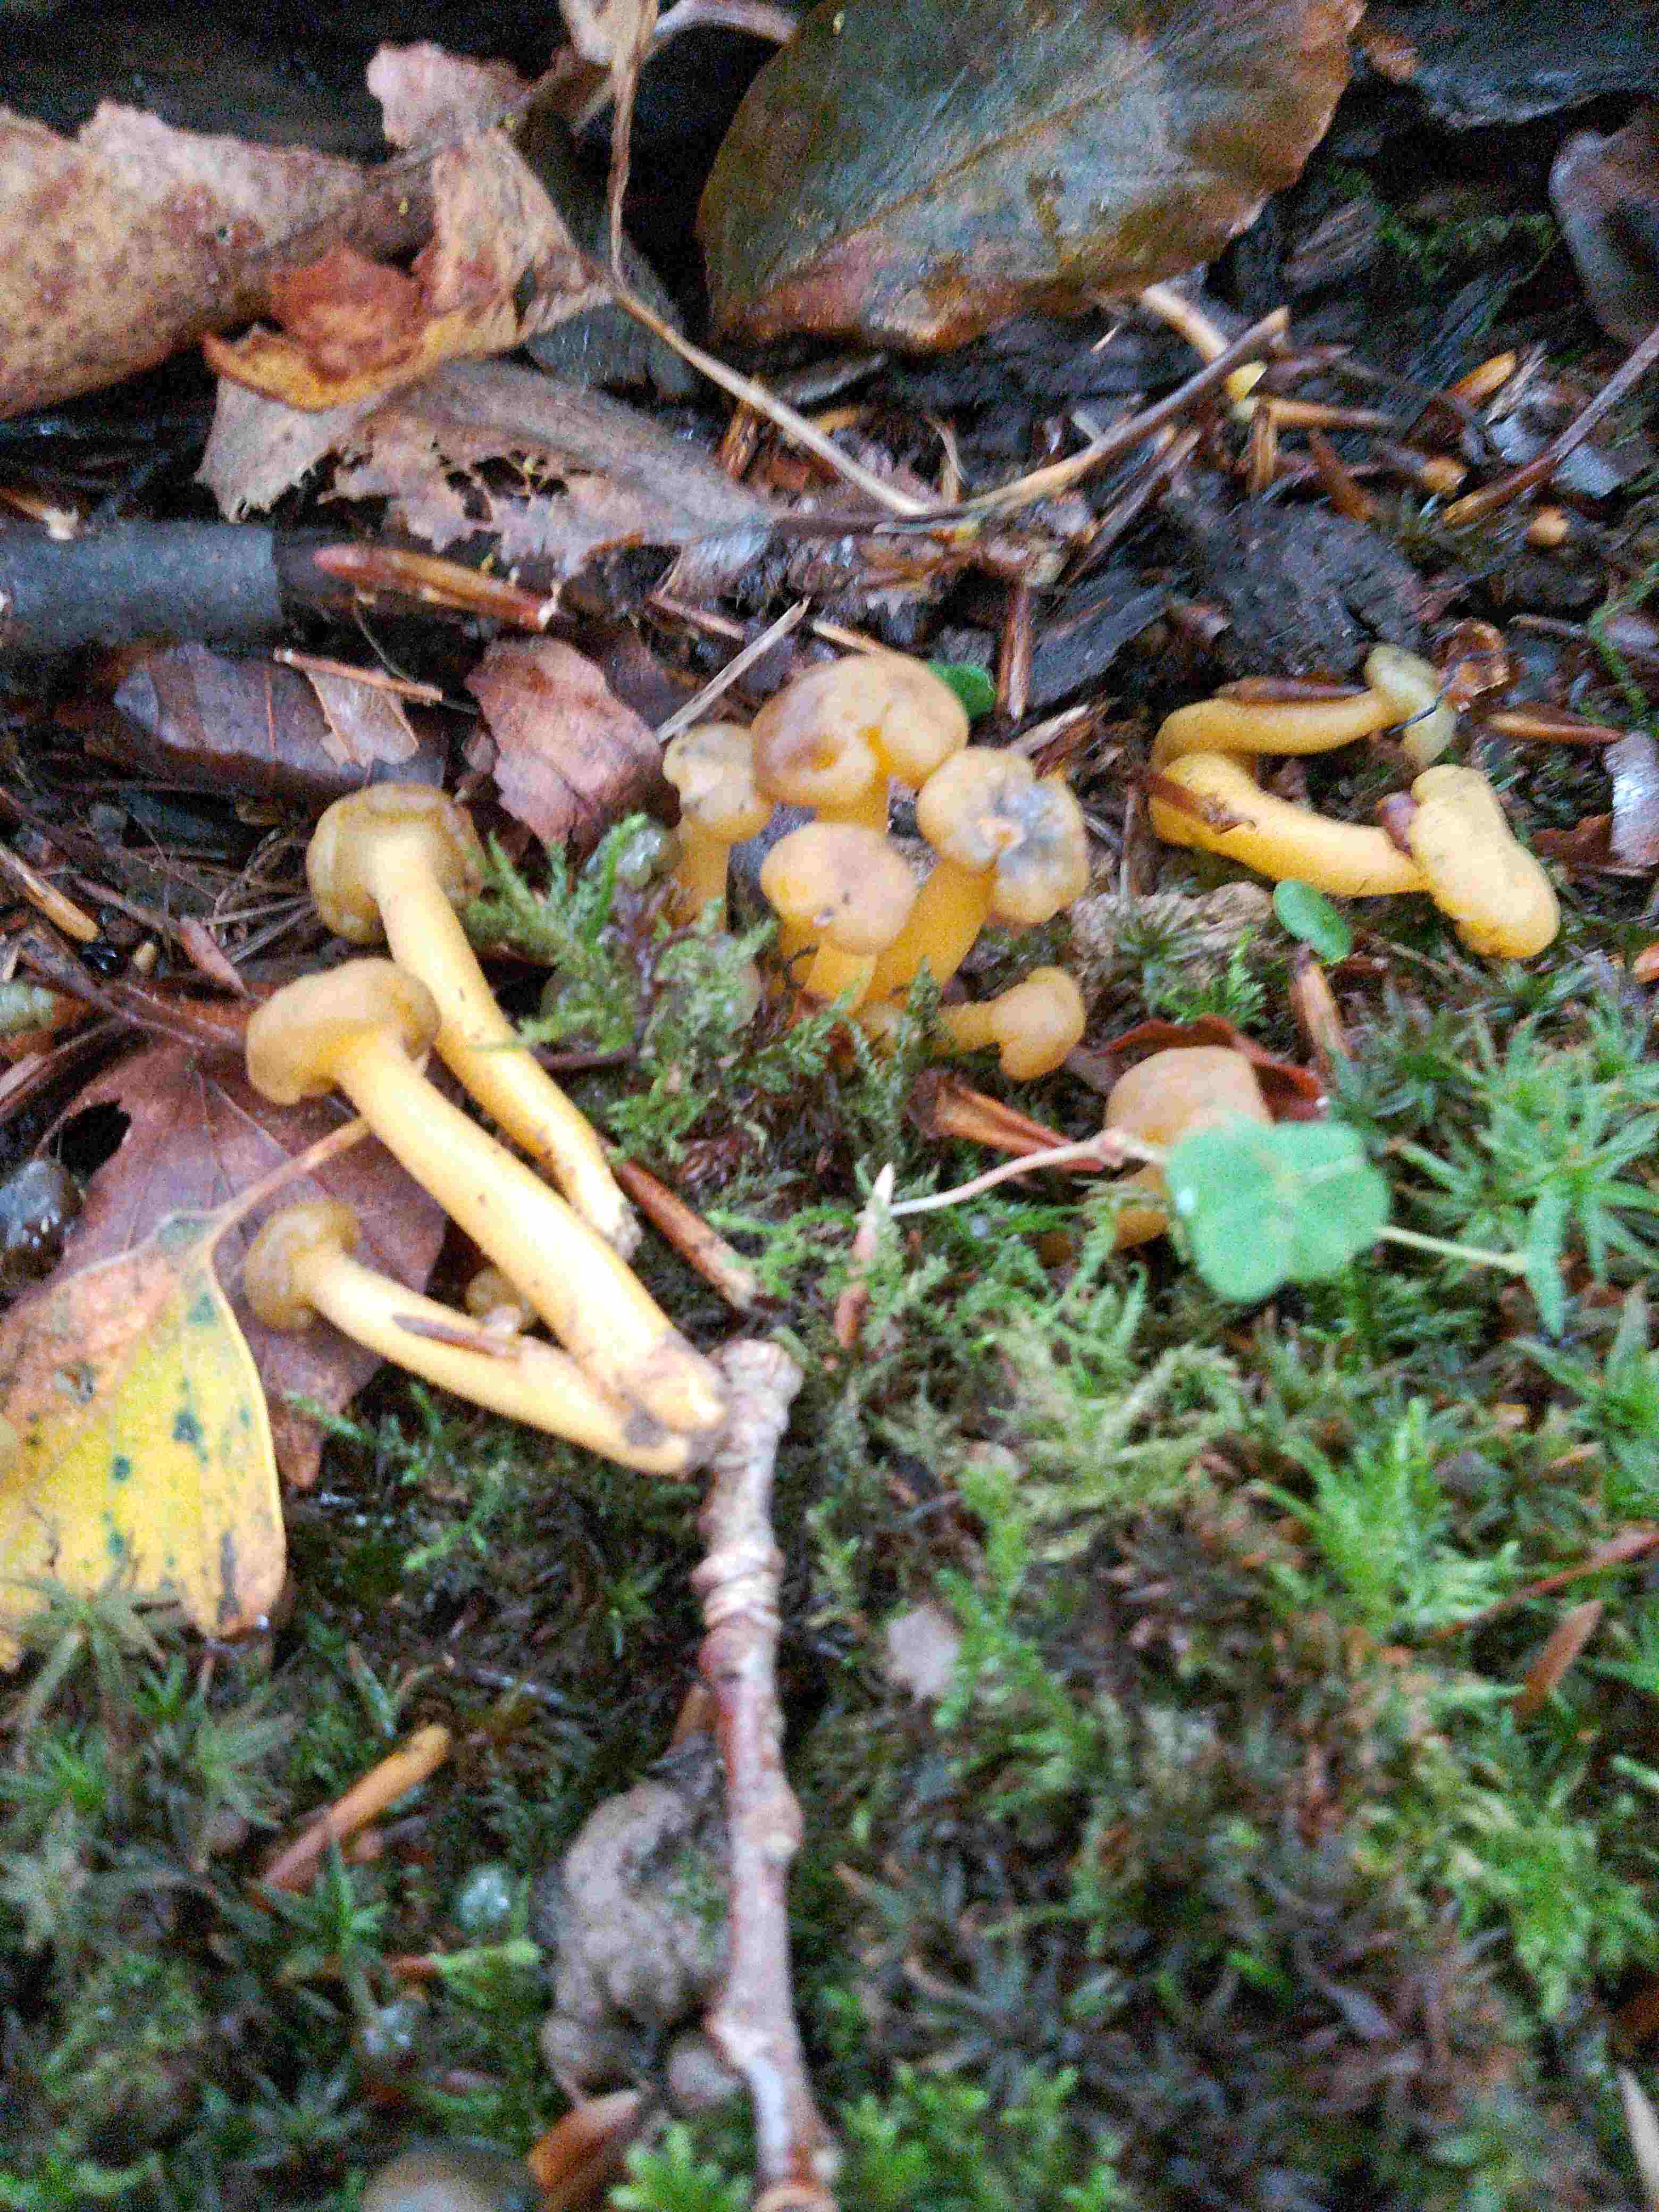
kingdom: Fungi
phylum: Ascomycota
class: Leotiomycetes
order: Leotiales
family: Leotiaceae
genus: Leotia
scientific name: Leotia lubrica
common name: ravsvamp
